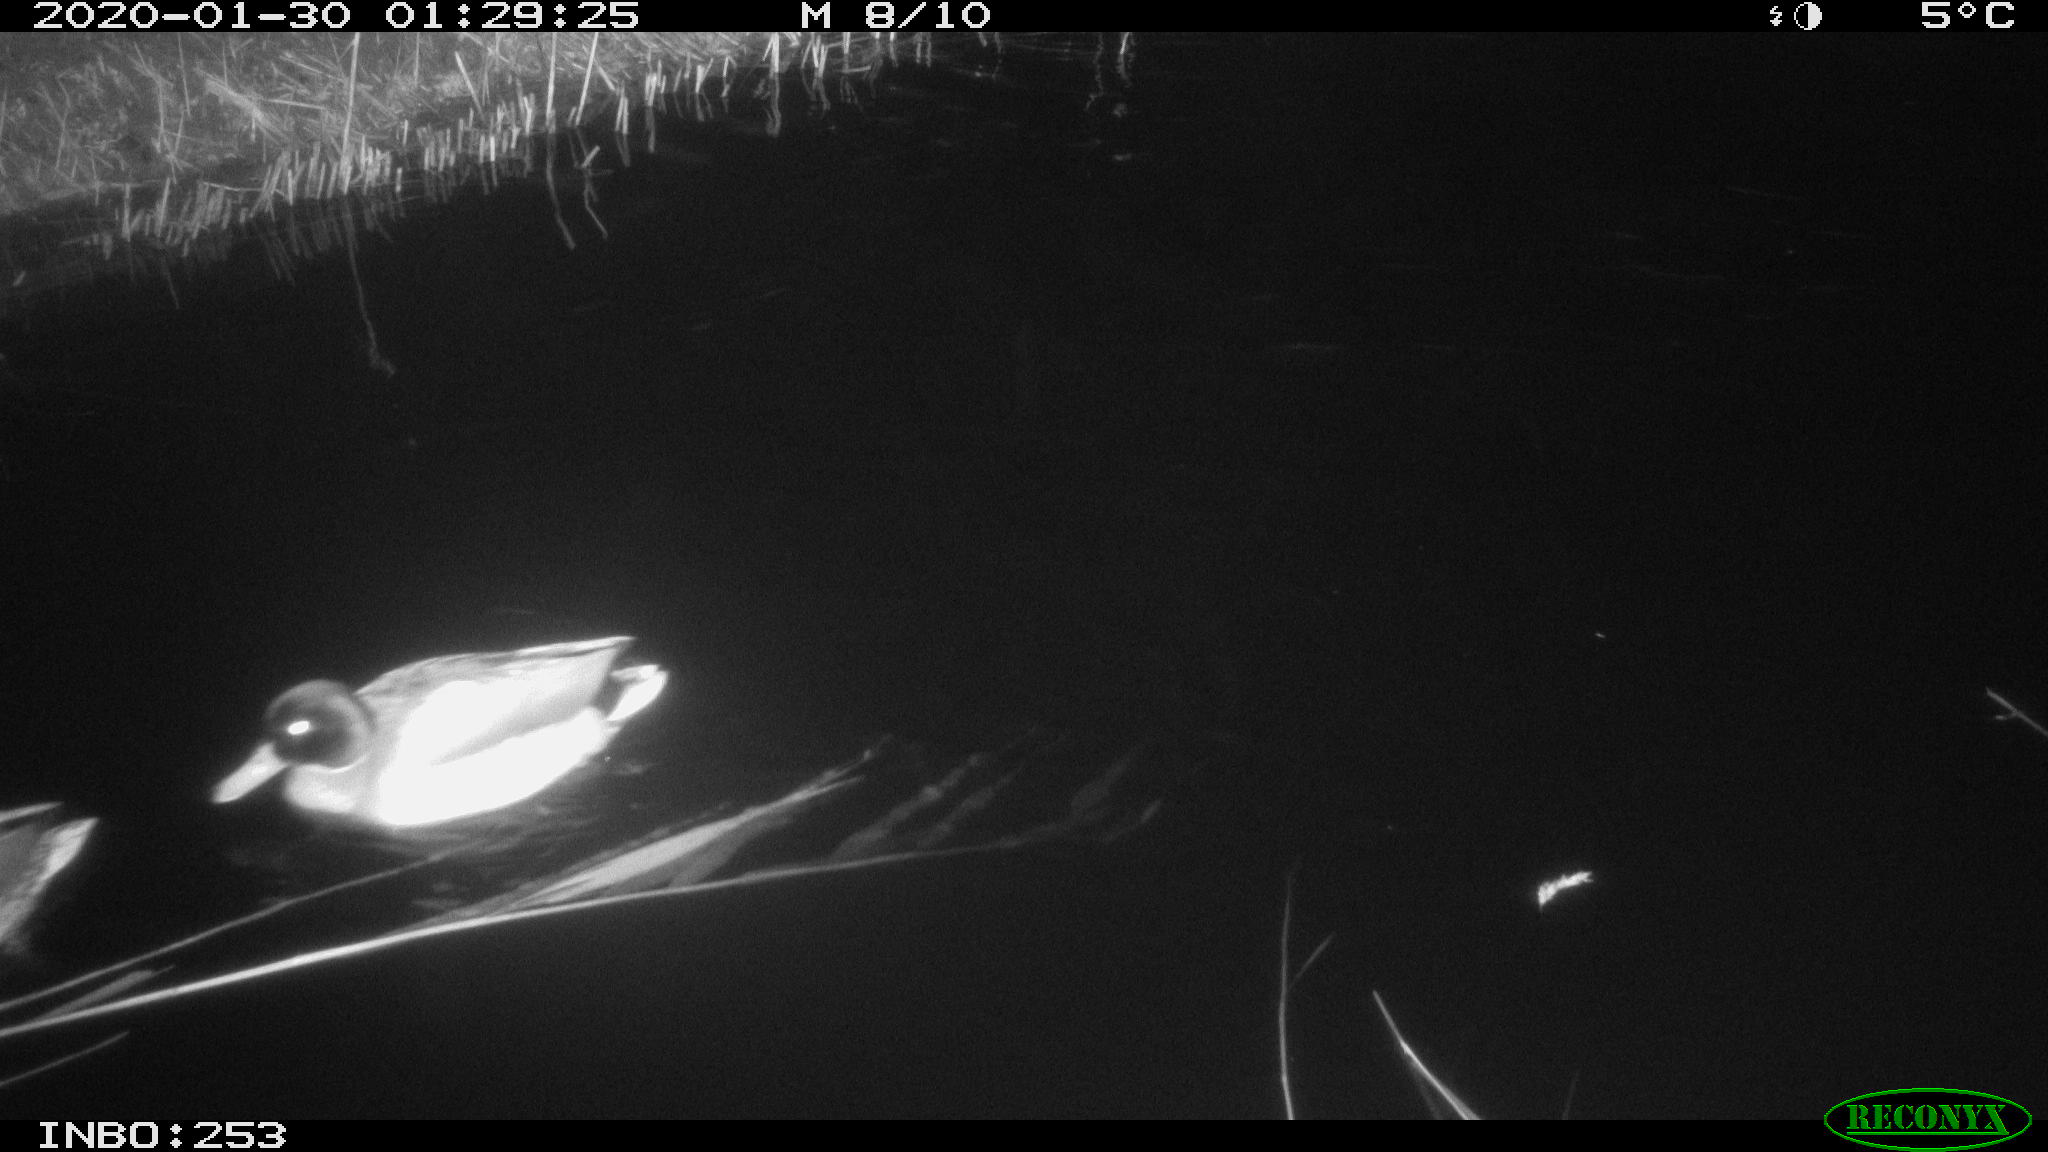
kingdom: Animalia
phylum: Chordata
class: Aves
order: Anseriformes
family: Anatidae
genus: Anas
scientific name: Anas platyrhynchos
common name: Mallard
